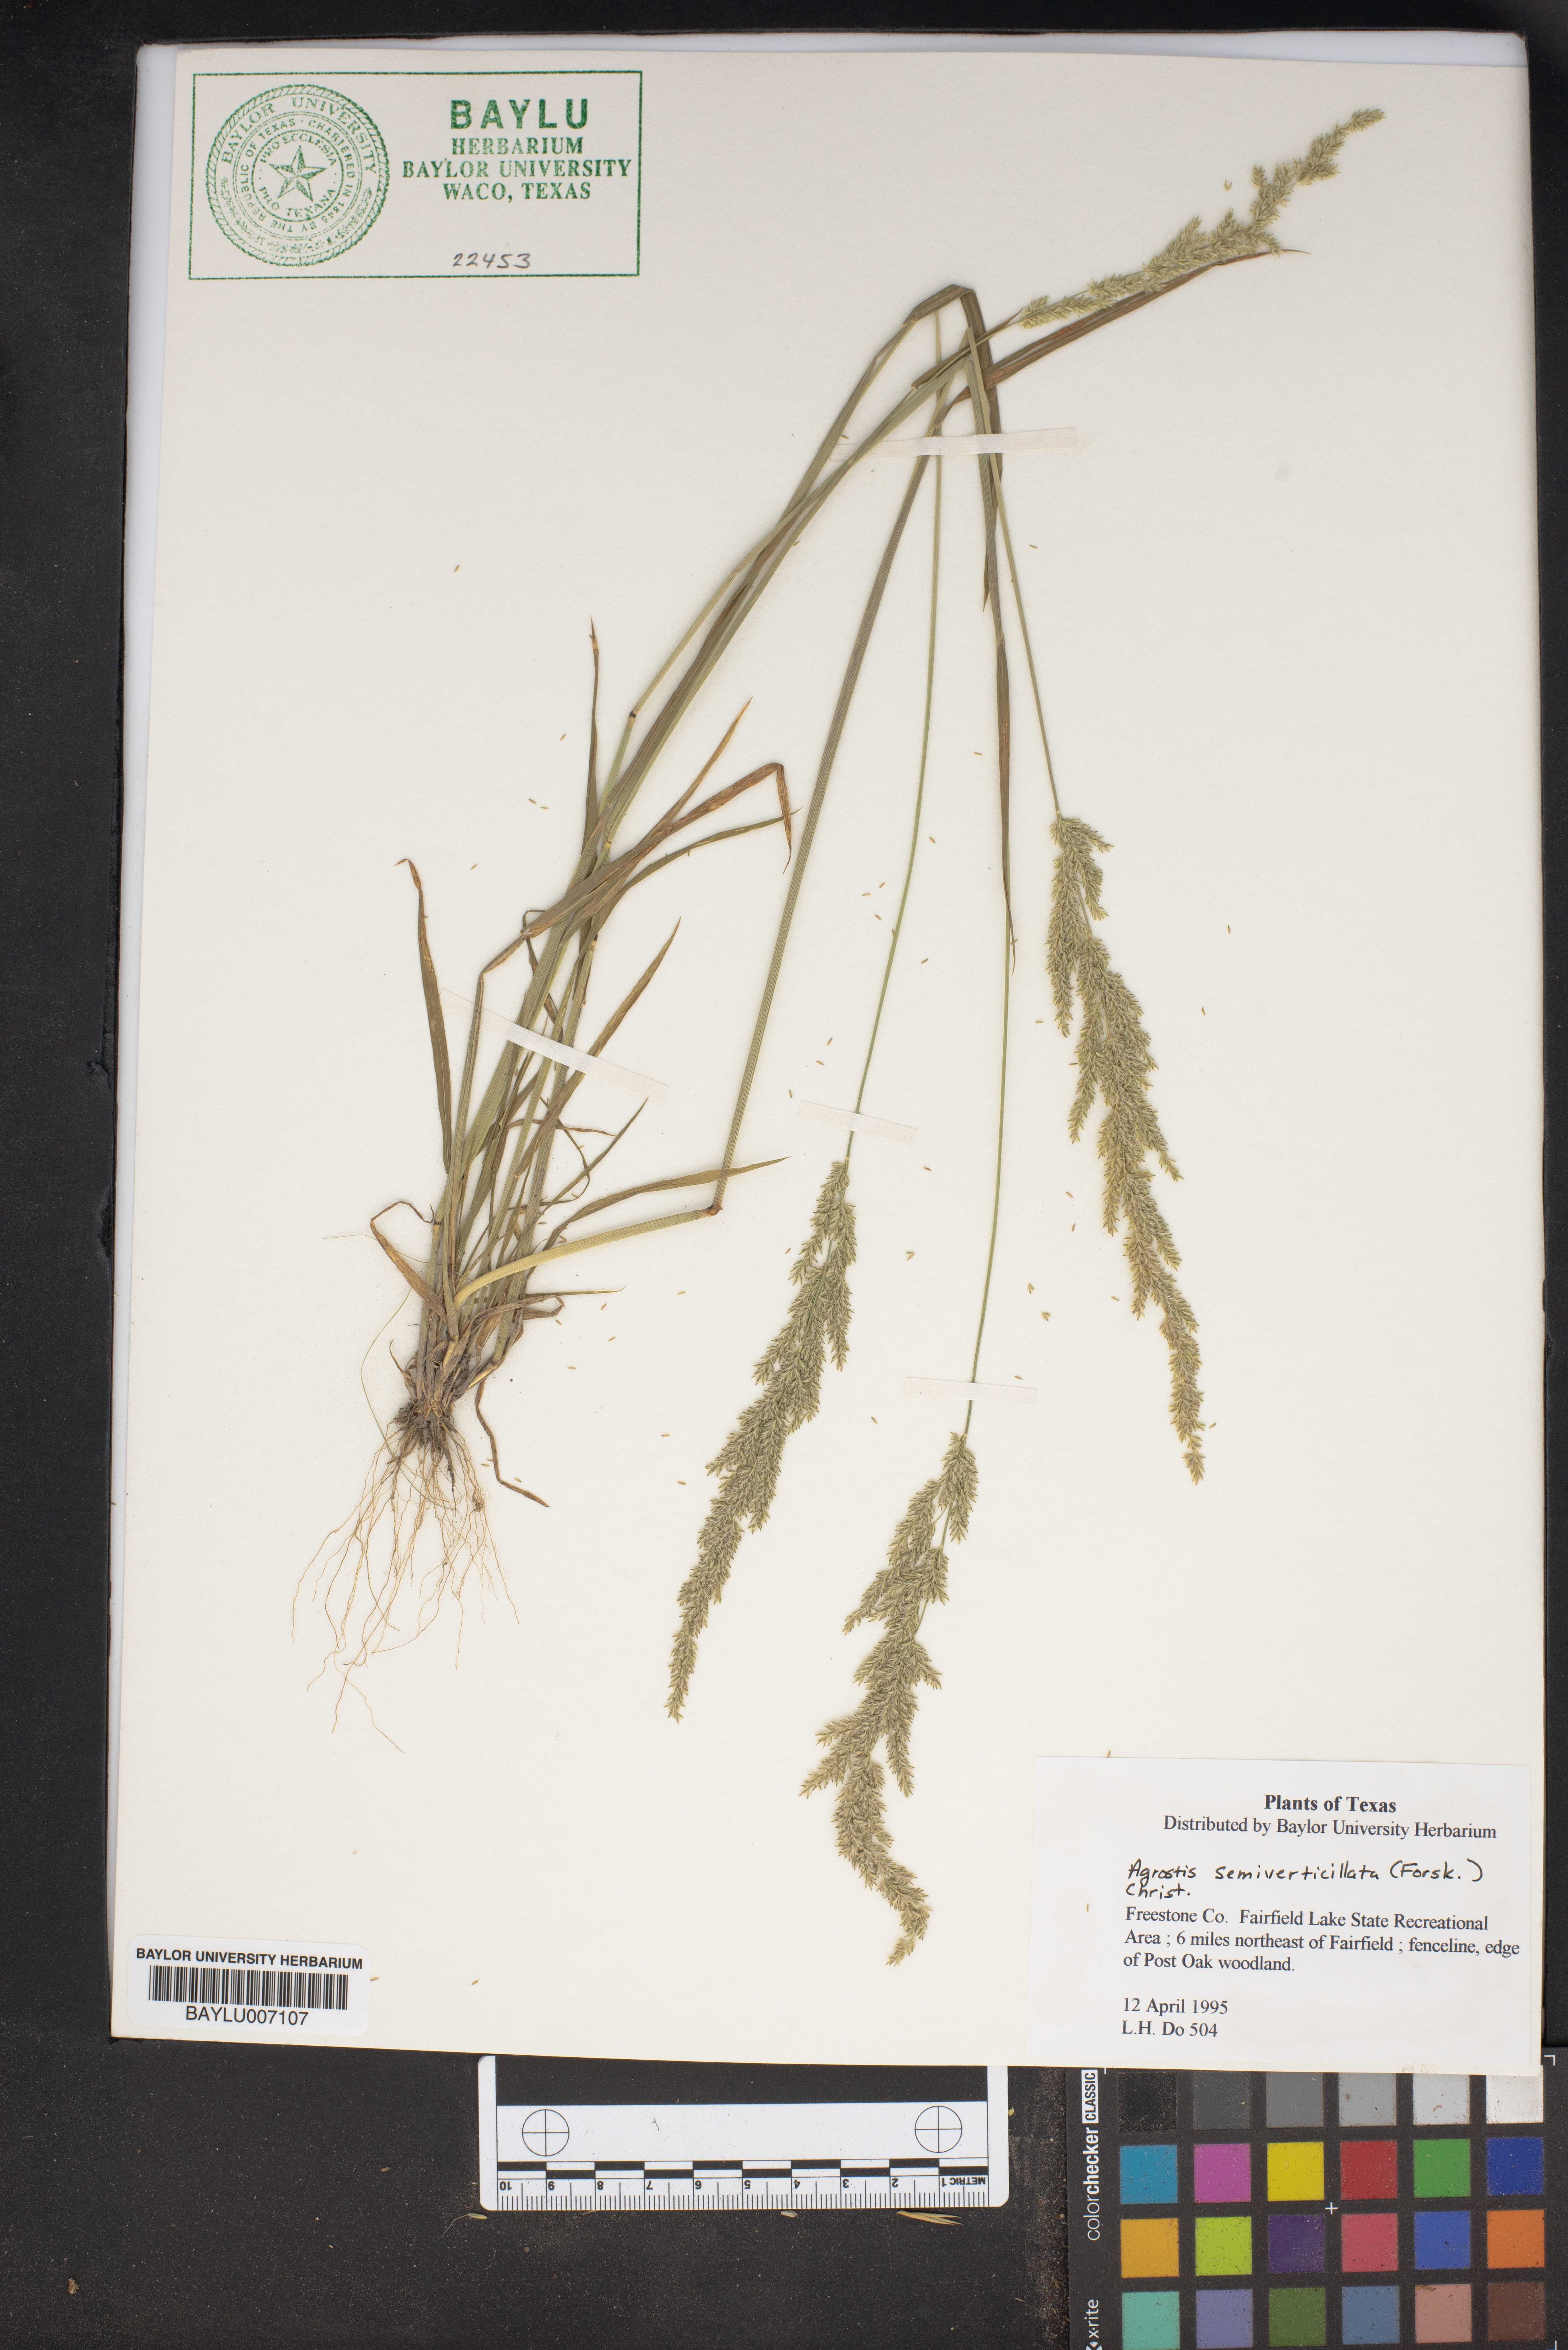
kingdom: Plantae
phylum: Tracheophyta
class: Liliopsida
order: Poales
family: Poaceae
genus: Polypogon
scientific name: Polypogon viridis
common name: Water bent
